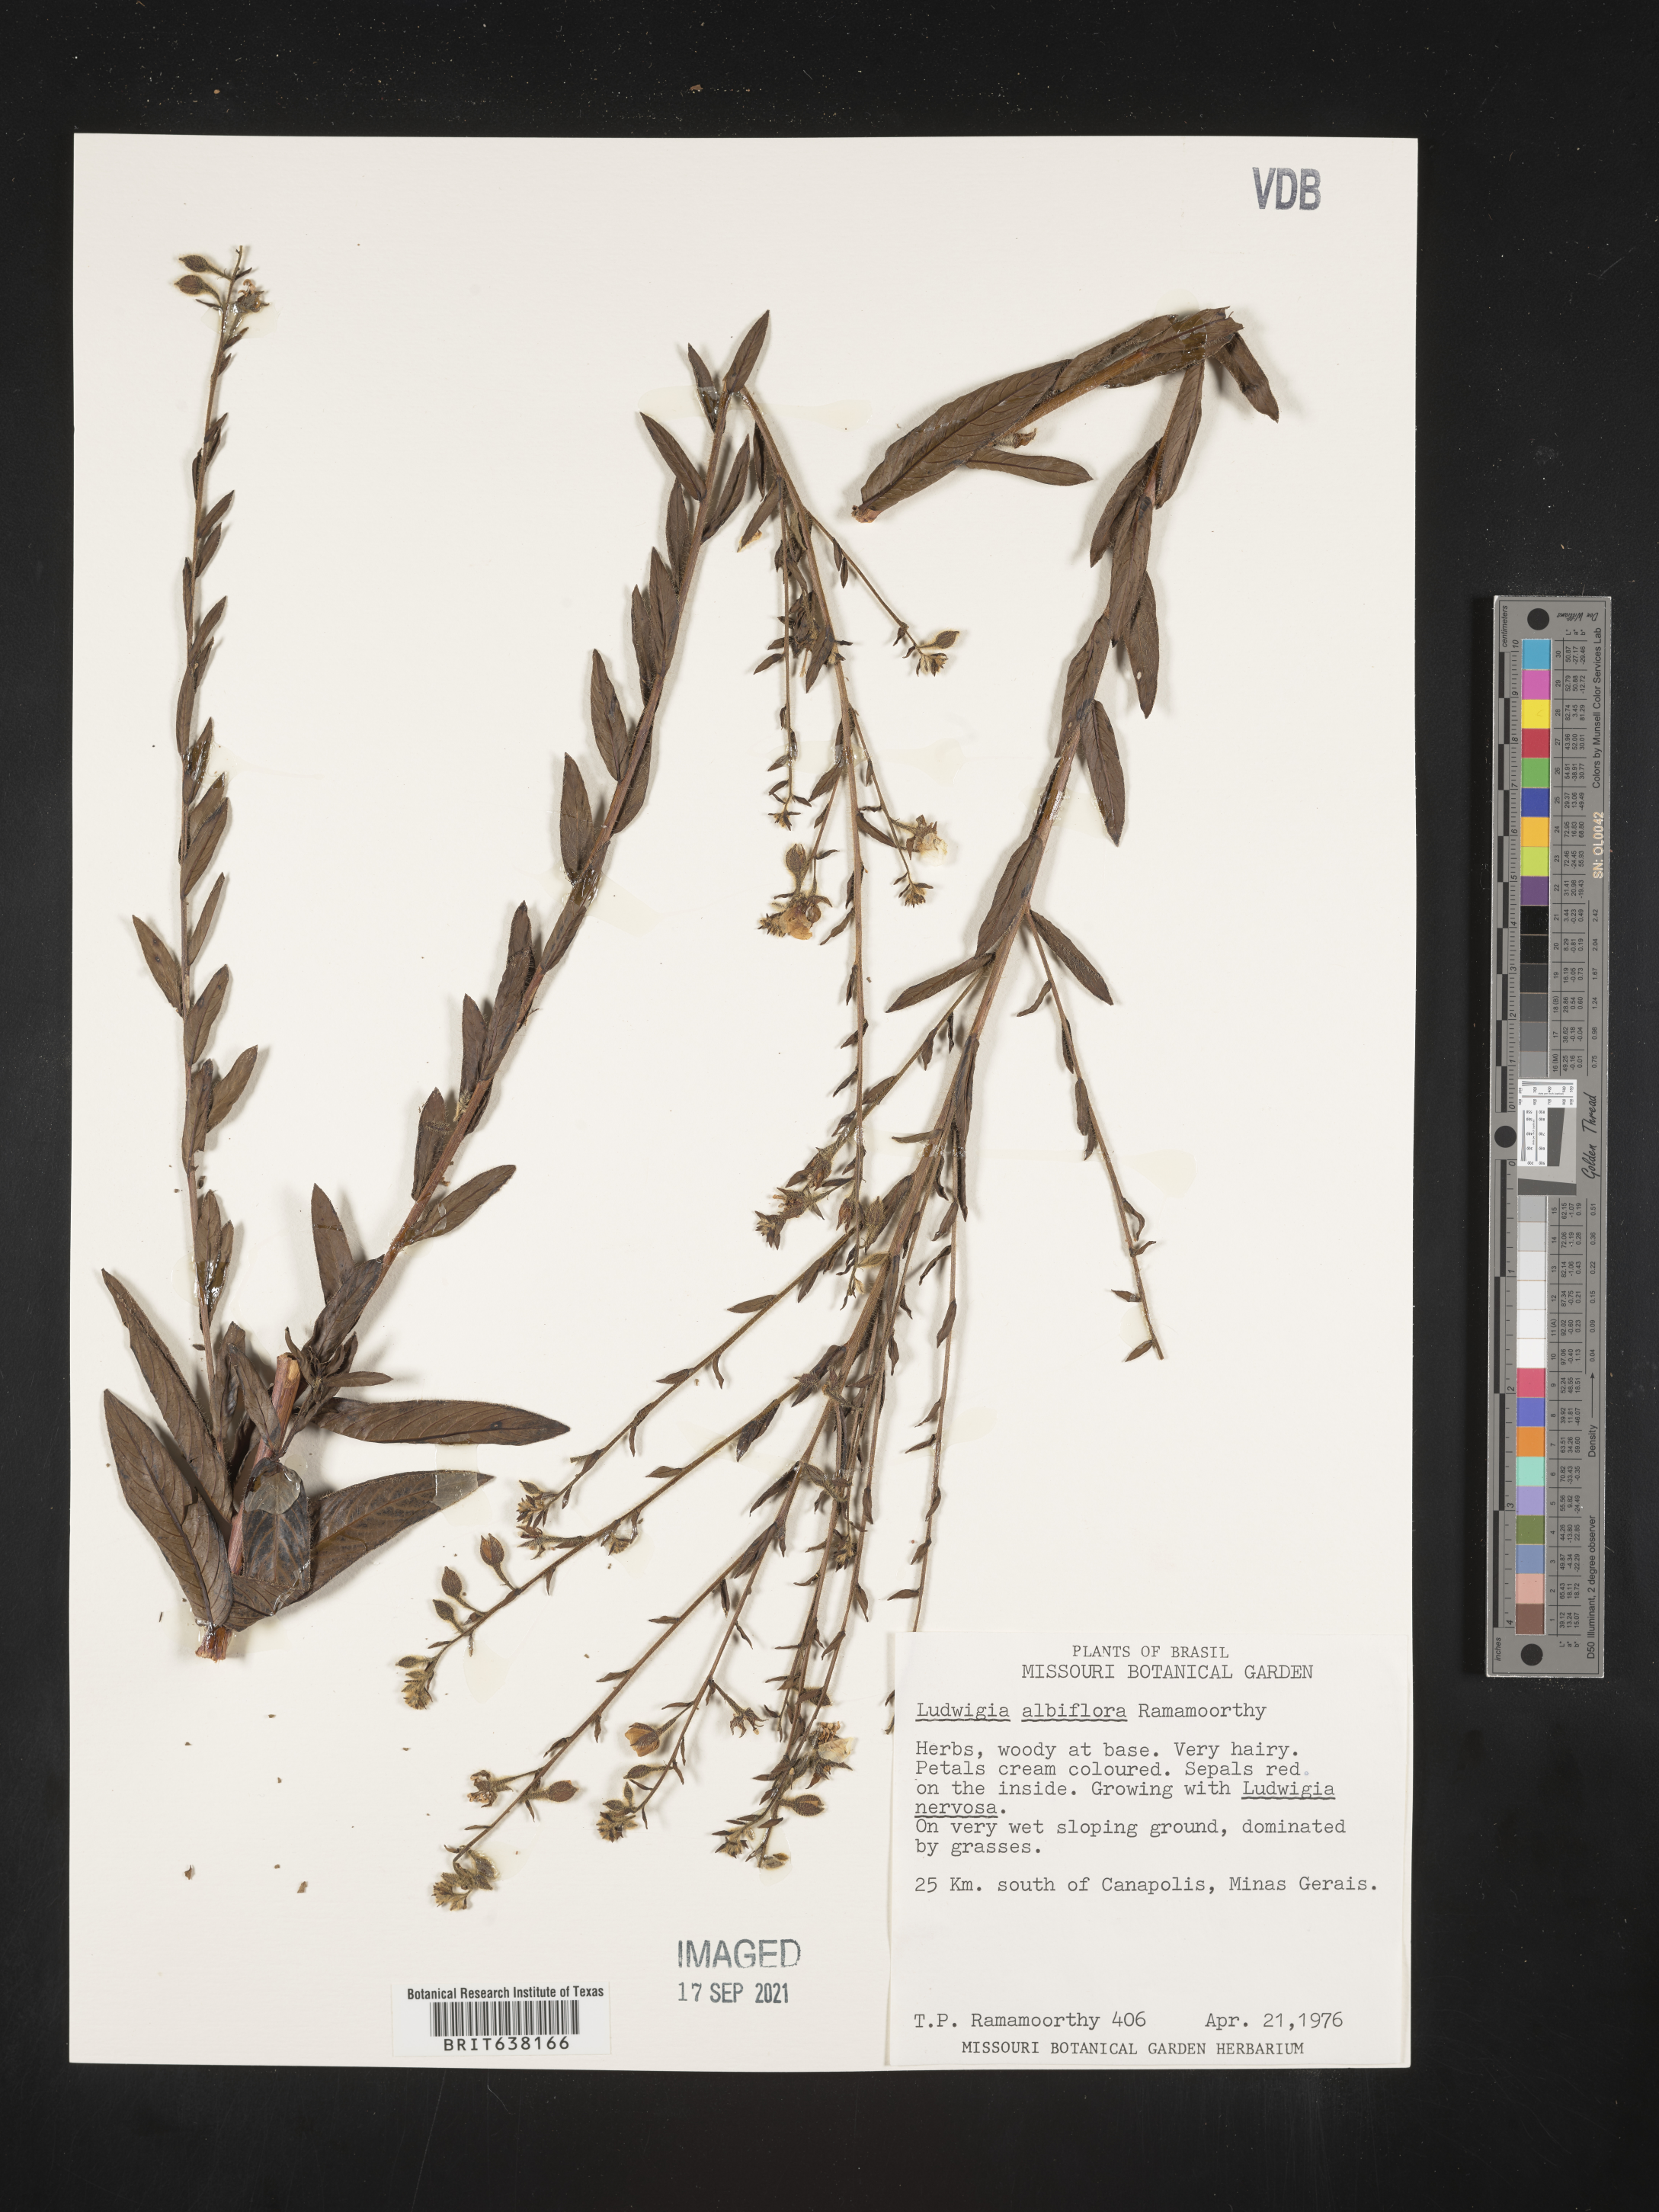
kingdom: Plantae
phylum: Tracheophyta
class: Magnoliopsida
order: Myrtales
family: Onagraceae
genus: Ludwigia
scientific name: Ludwigia
